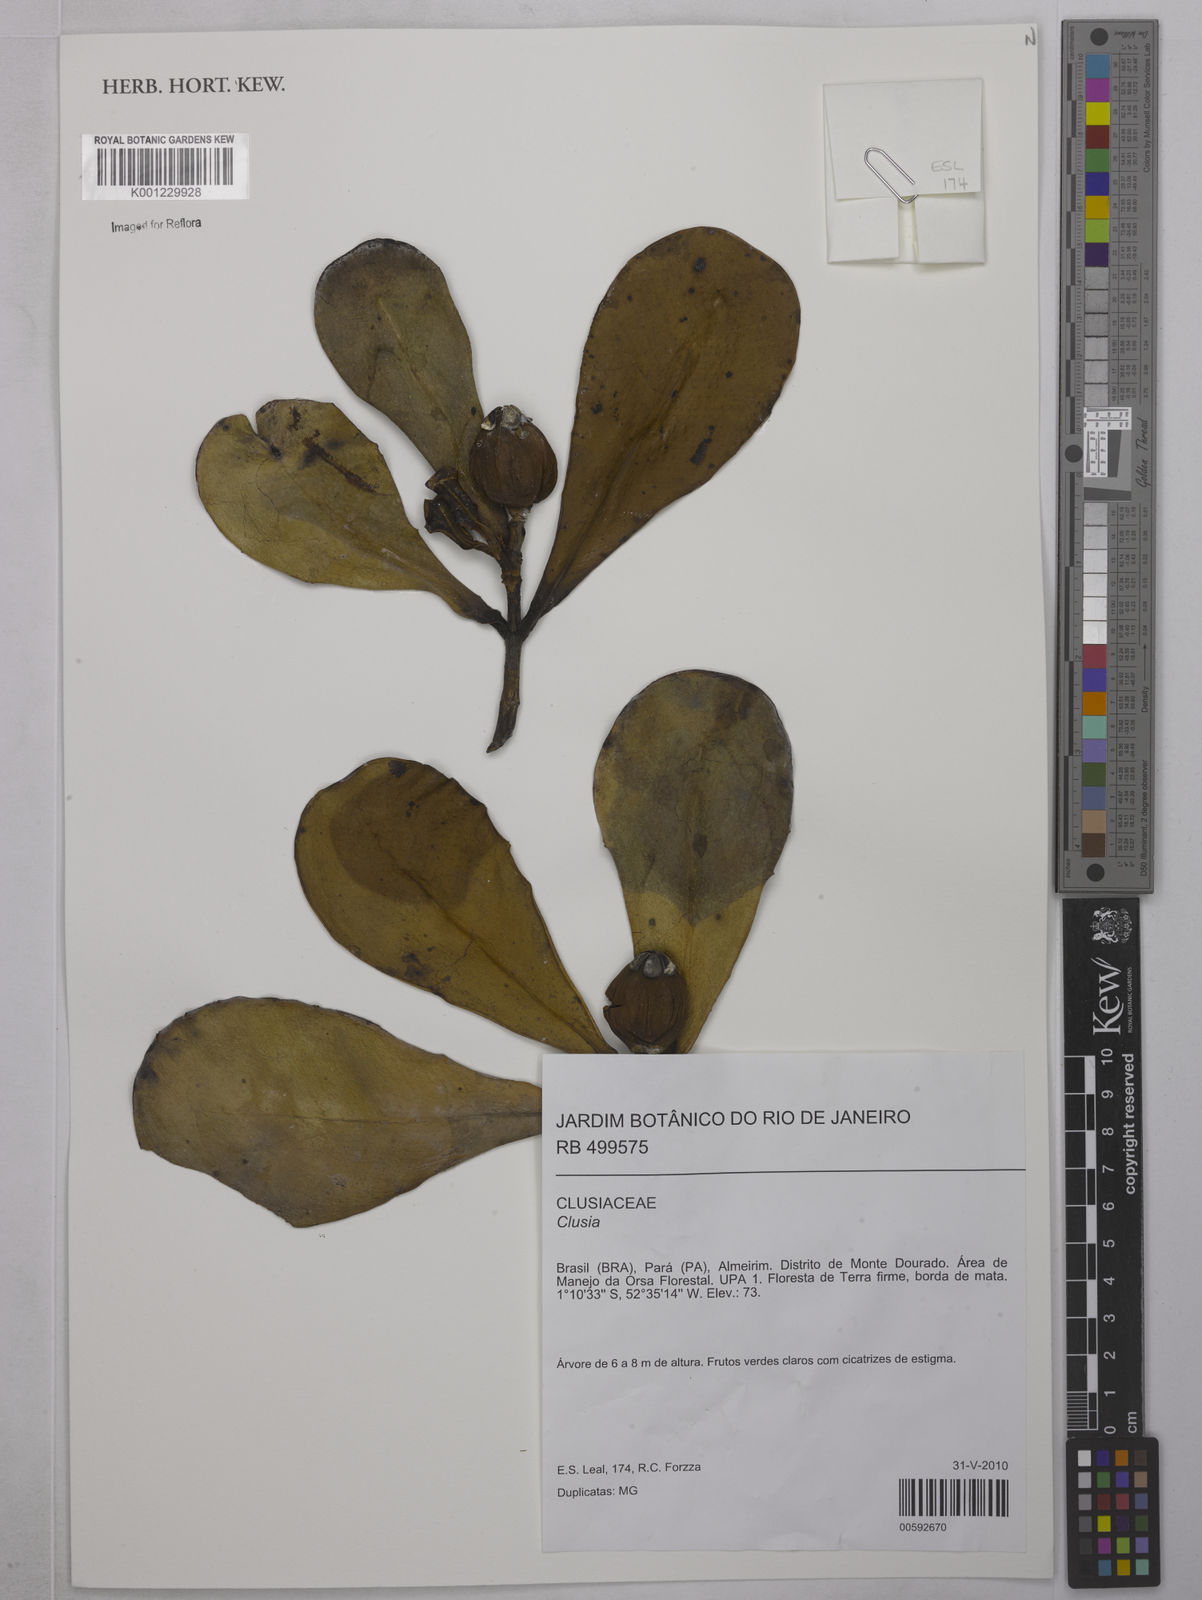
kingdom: Plantae
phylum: Tracheophyta
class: Magnoliopsida
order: Malpighiales
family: Clusiaceae
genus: Clusia
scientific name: Clusia
